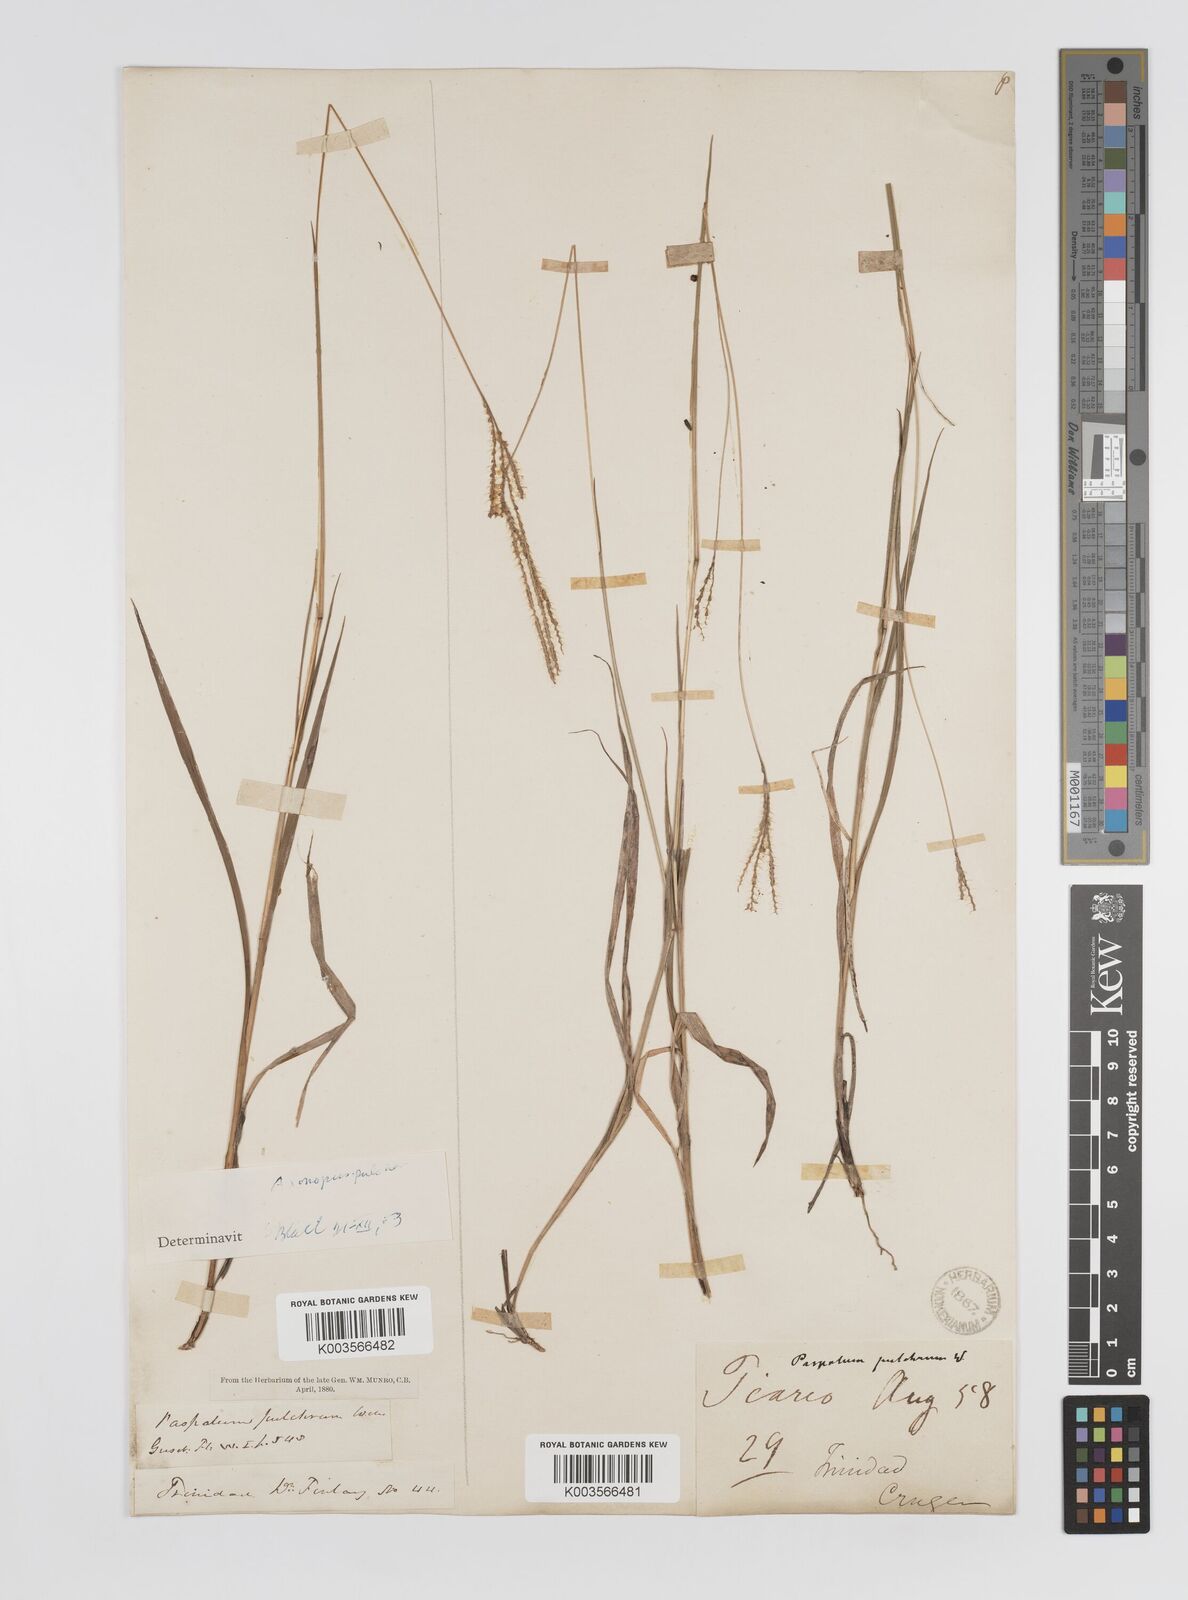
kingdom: Plantae
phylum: Tracheophyta
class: Liliopsida
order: Poales
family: Poaceae
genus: Axonopus
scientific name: Axonopus aureus
